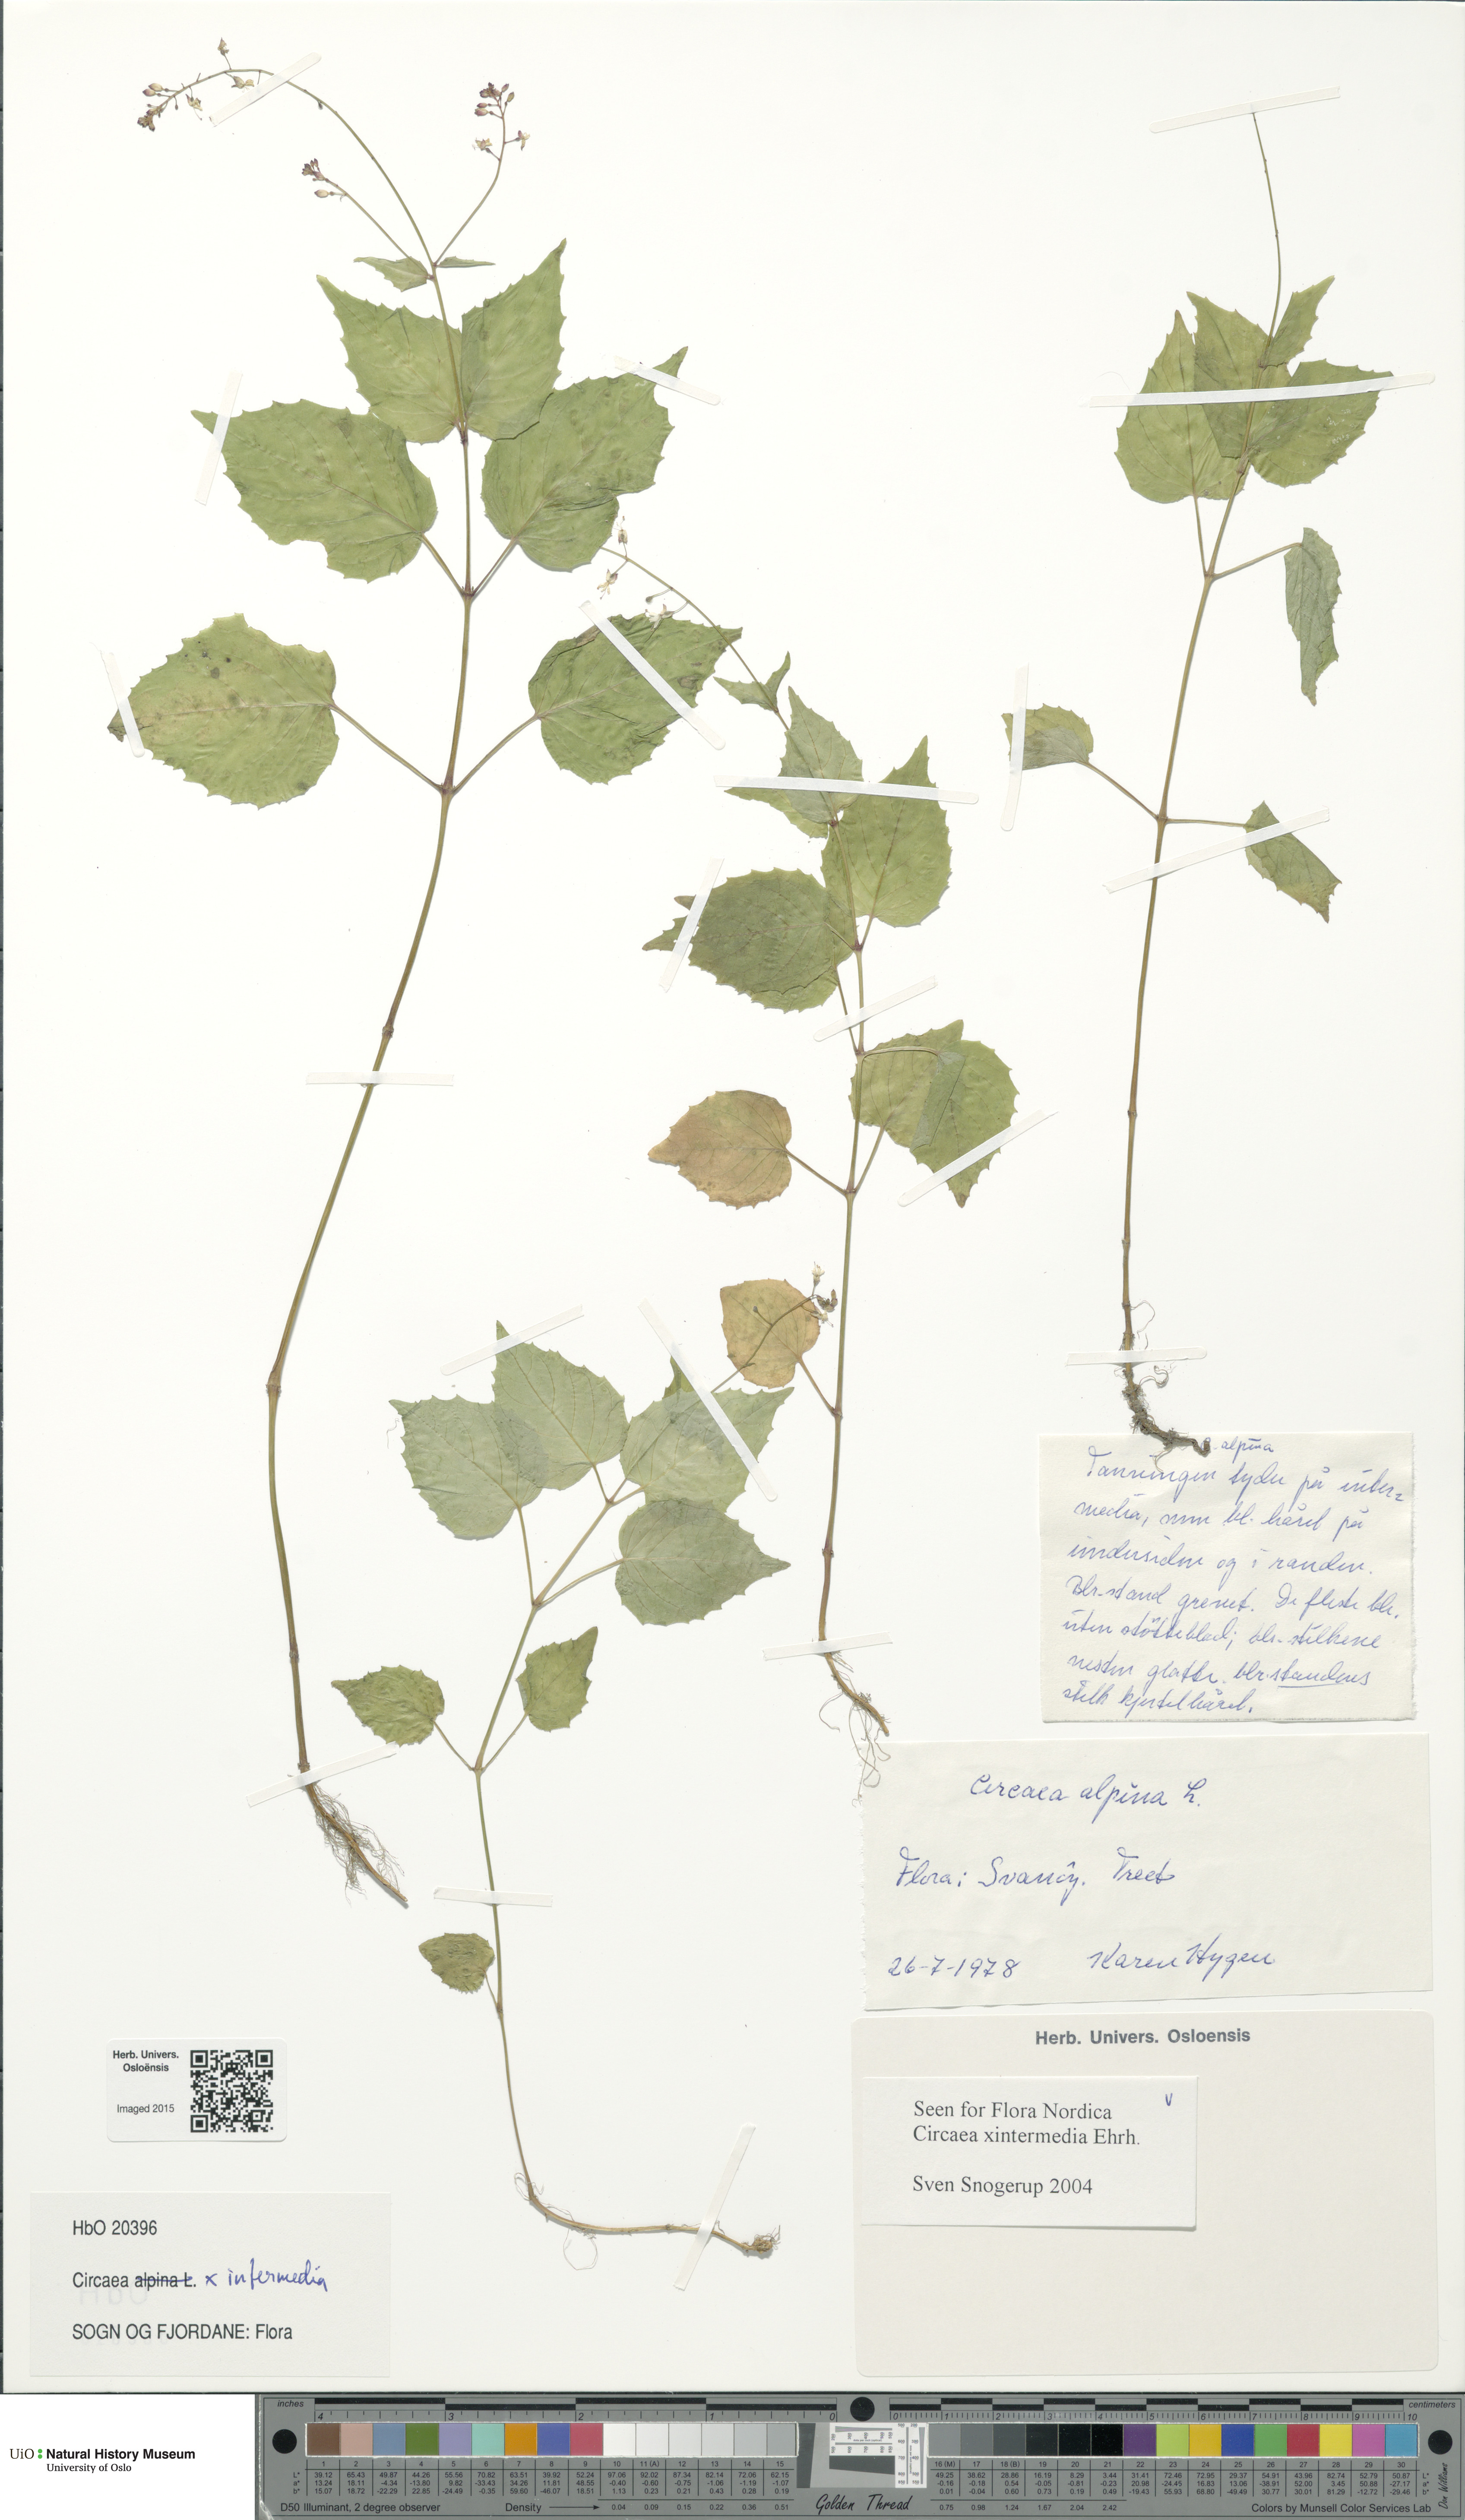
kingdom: Plantae
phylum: Tracheophyta
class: Magnoliopsida
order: Myrtales
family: Onagraceae
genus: Circaea
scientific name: Circaea intermedia
